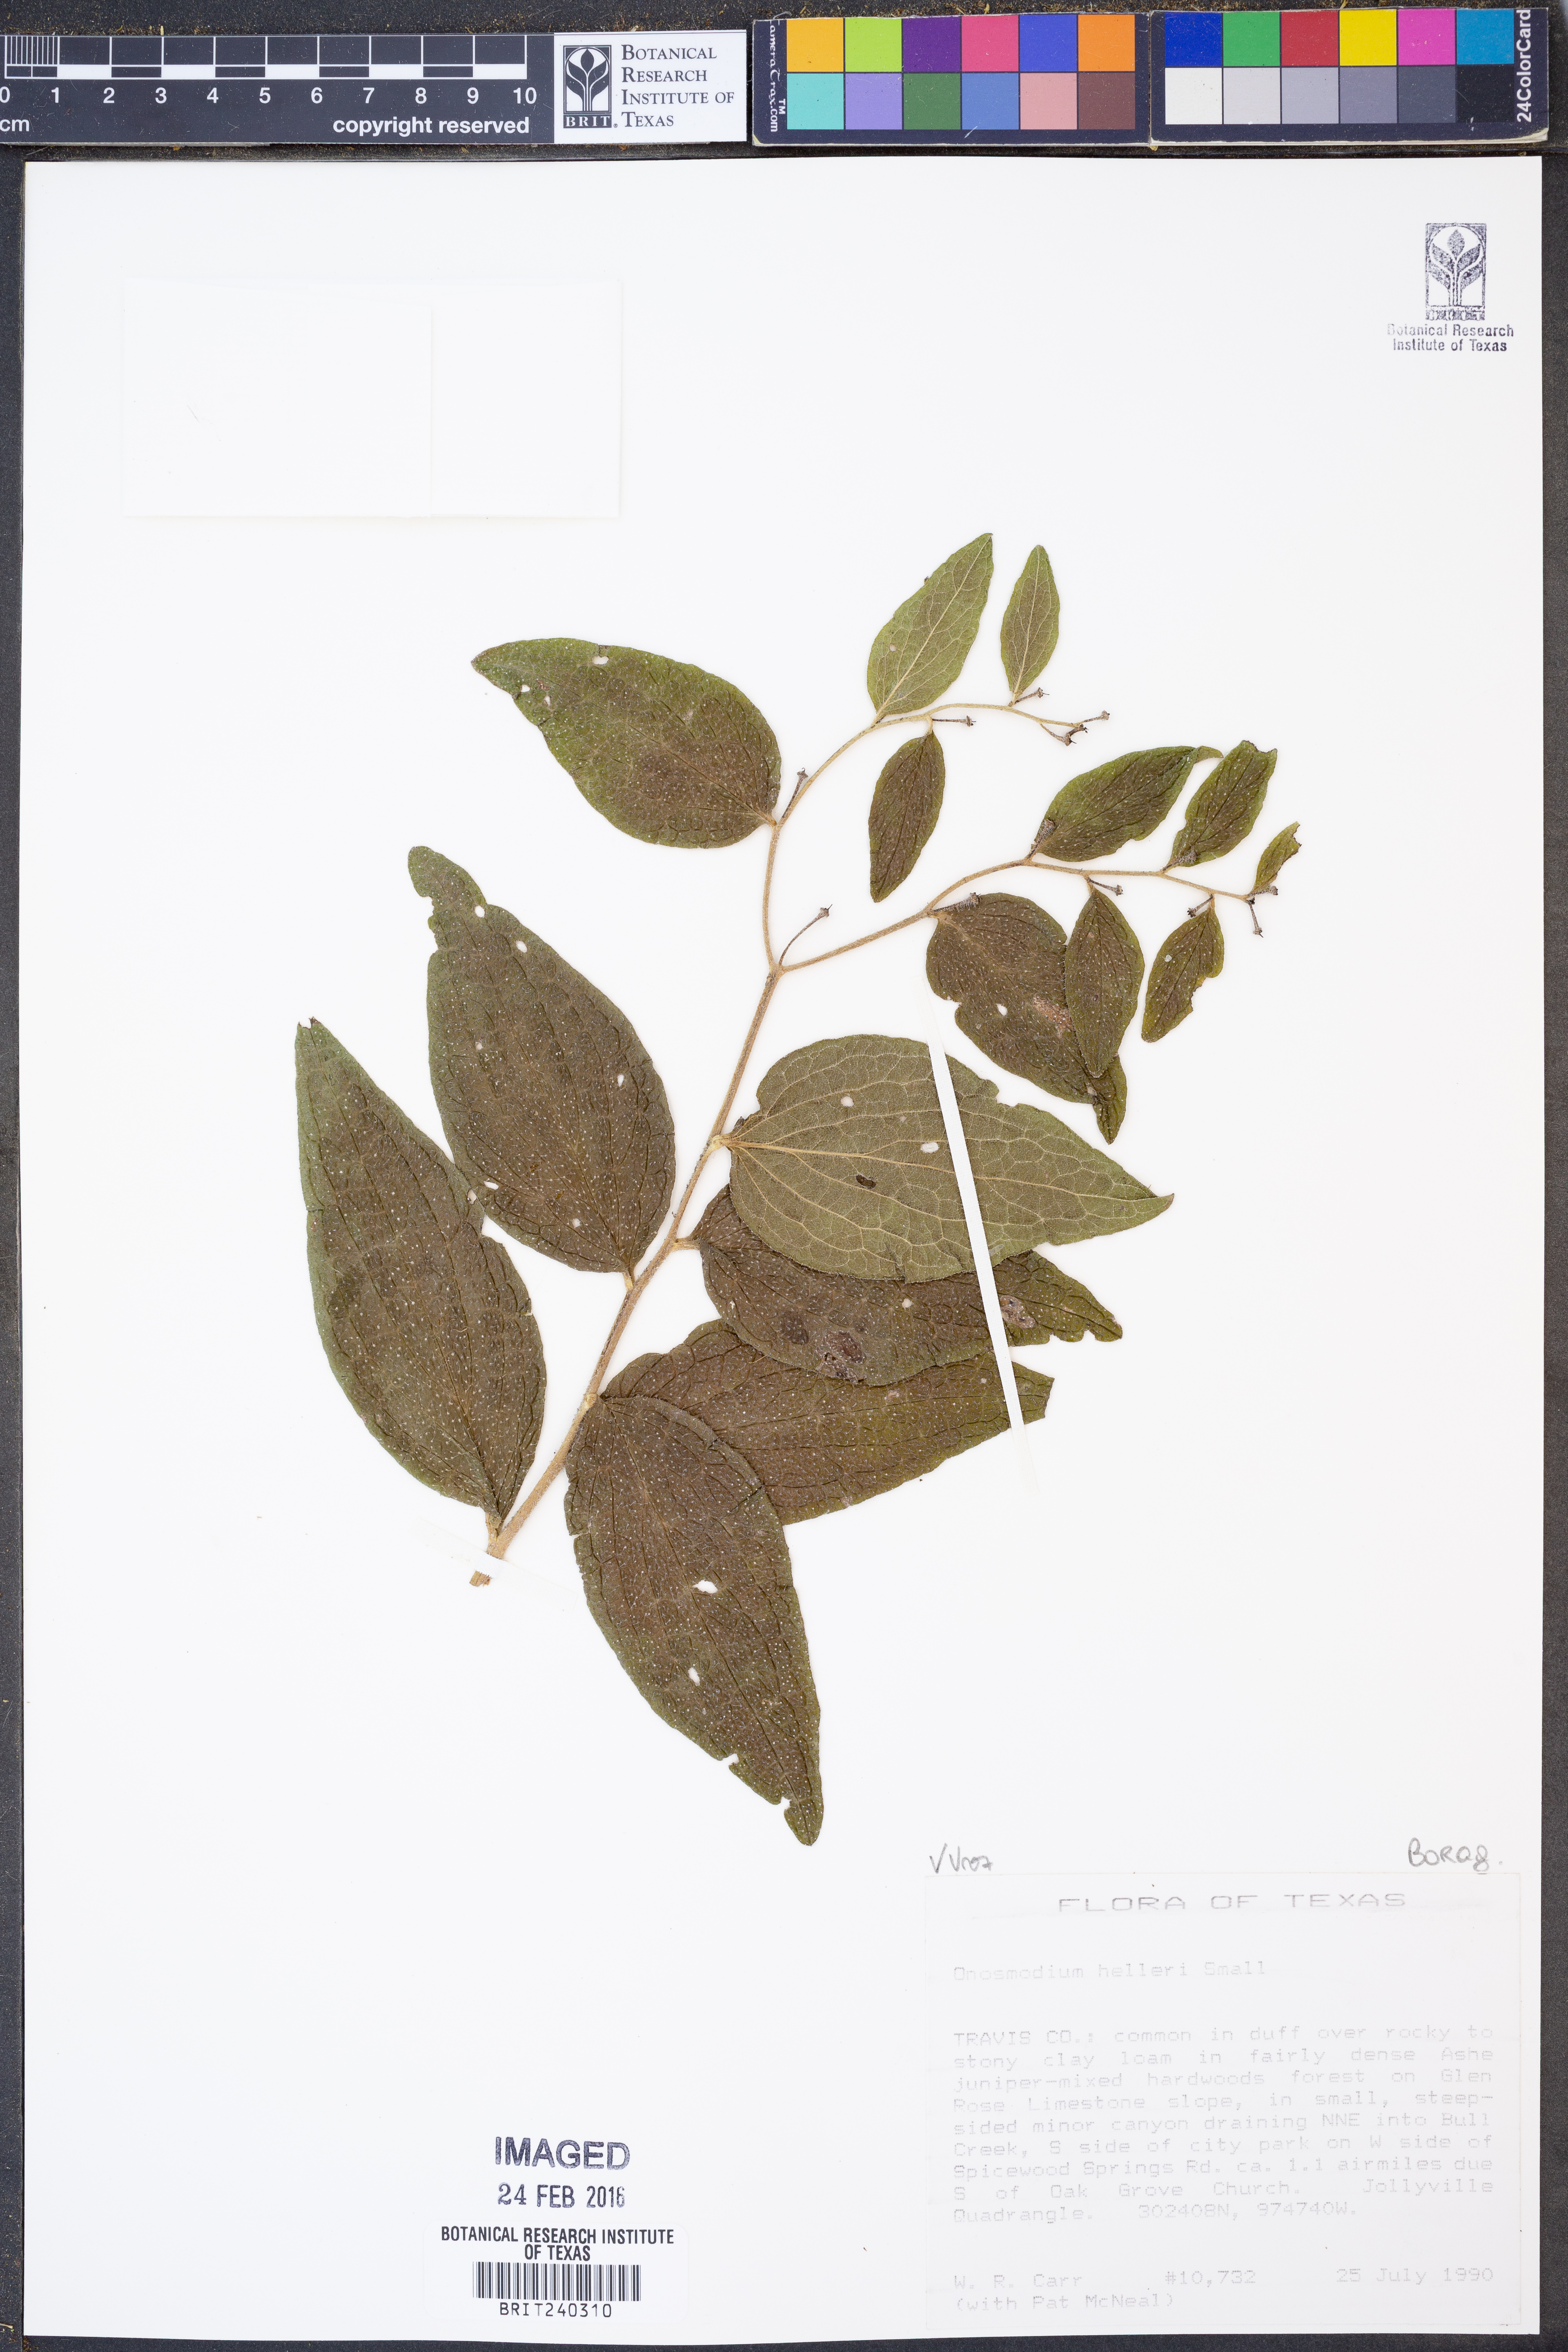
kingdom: Plantae
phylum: Tracheophyta
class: Magnoliopsida
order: Boraginales
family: Boraginaceae
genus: Lithospermum
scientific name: Lithospermum helleri
